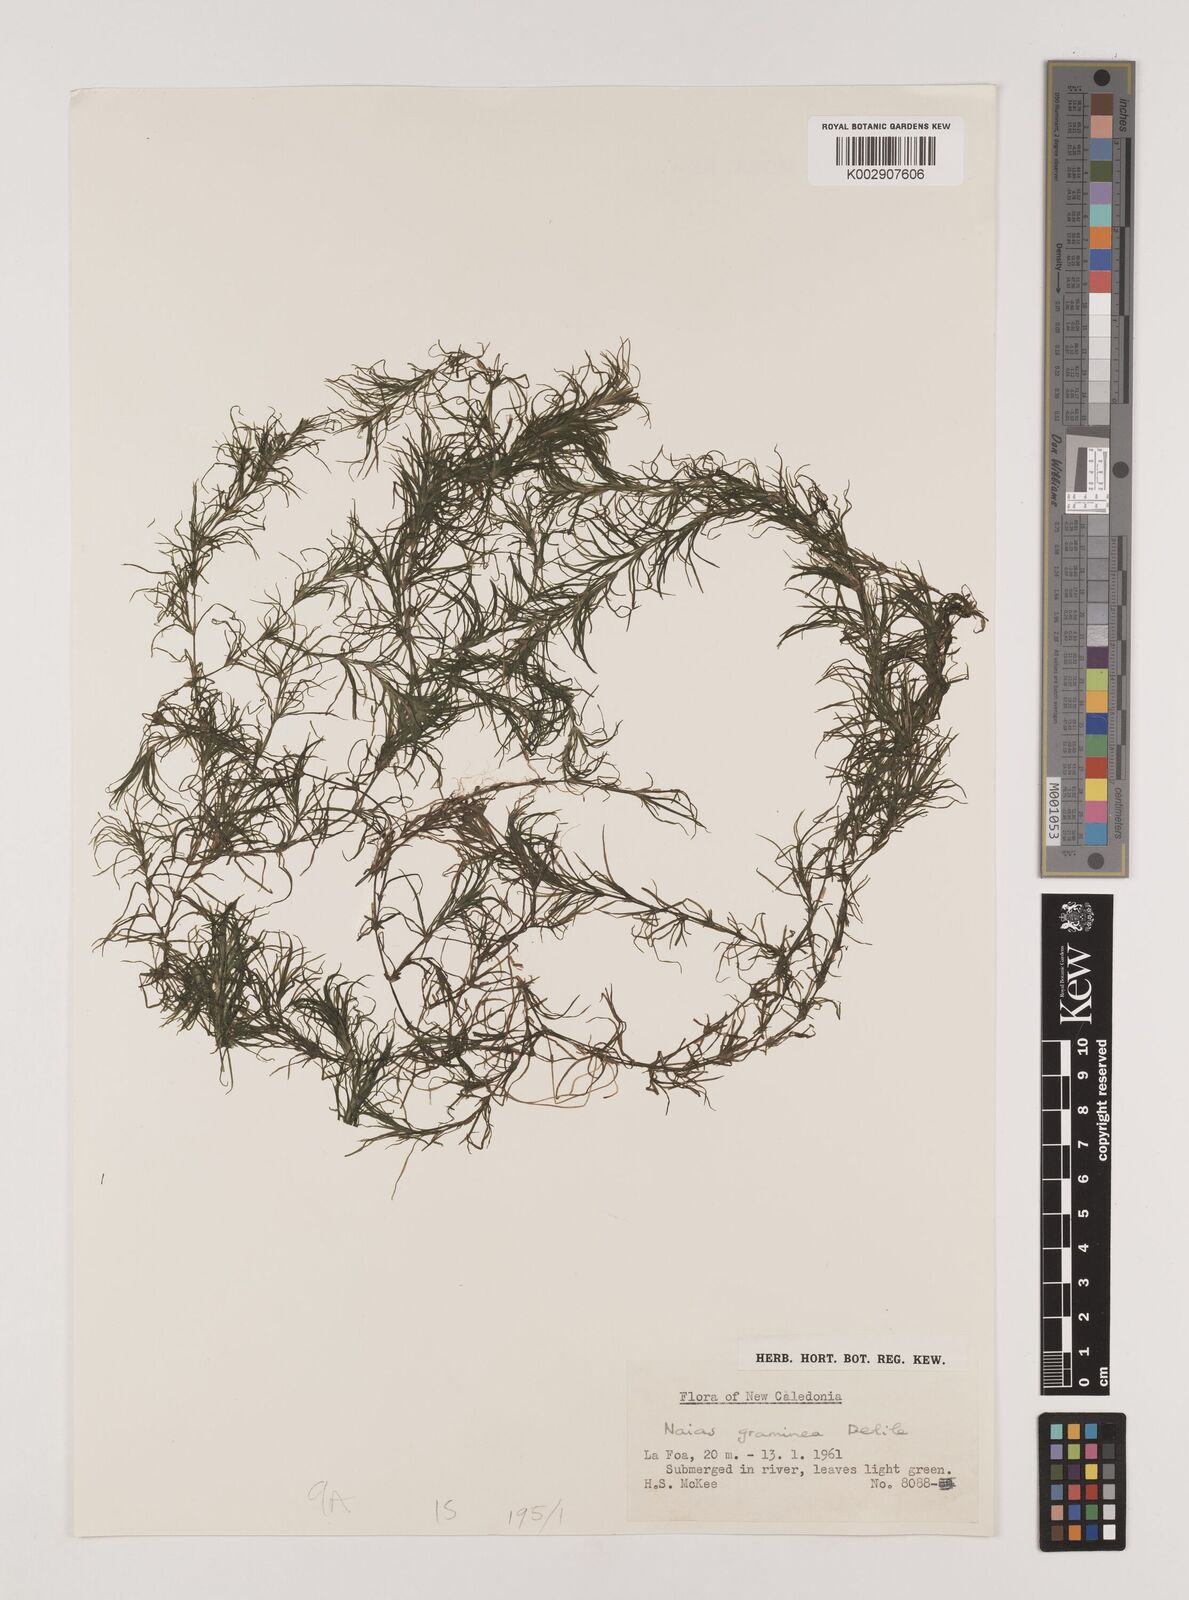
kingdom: Plantae
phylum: Tracheophyta
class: Liliopsida
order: Alismatales
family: Hydrocharitaceae
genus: Najas
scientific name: Najas graminea
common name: Ricefield waternymph
